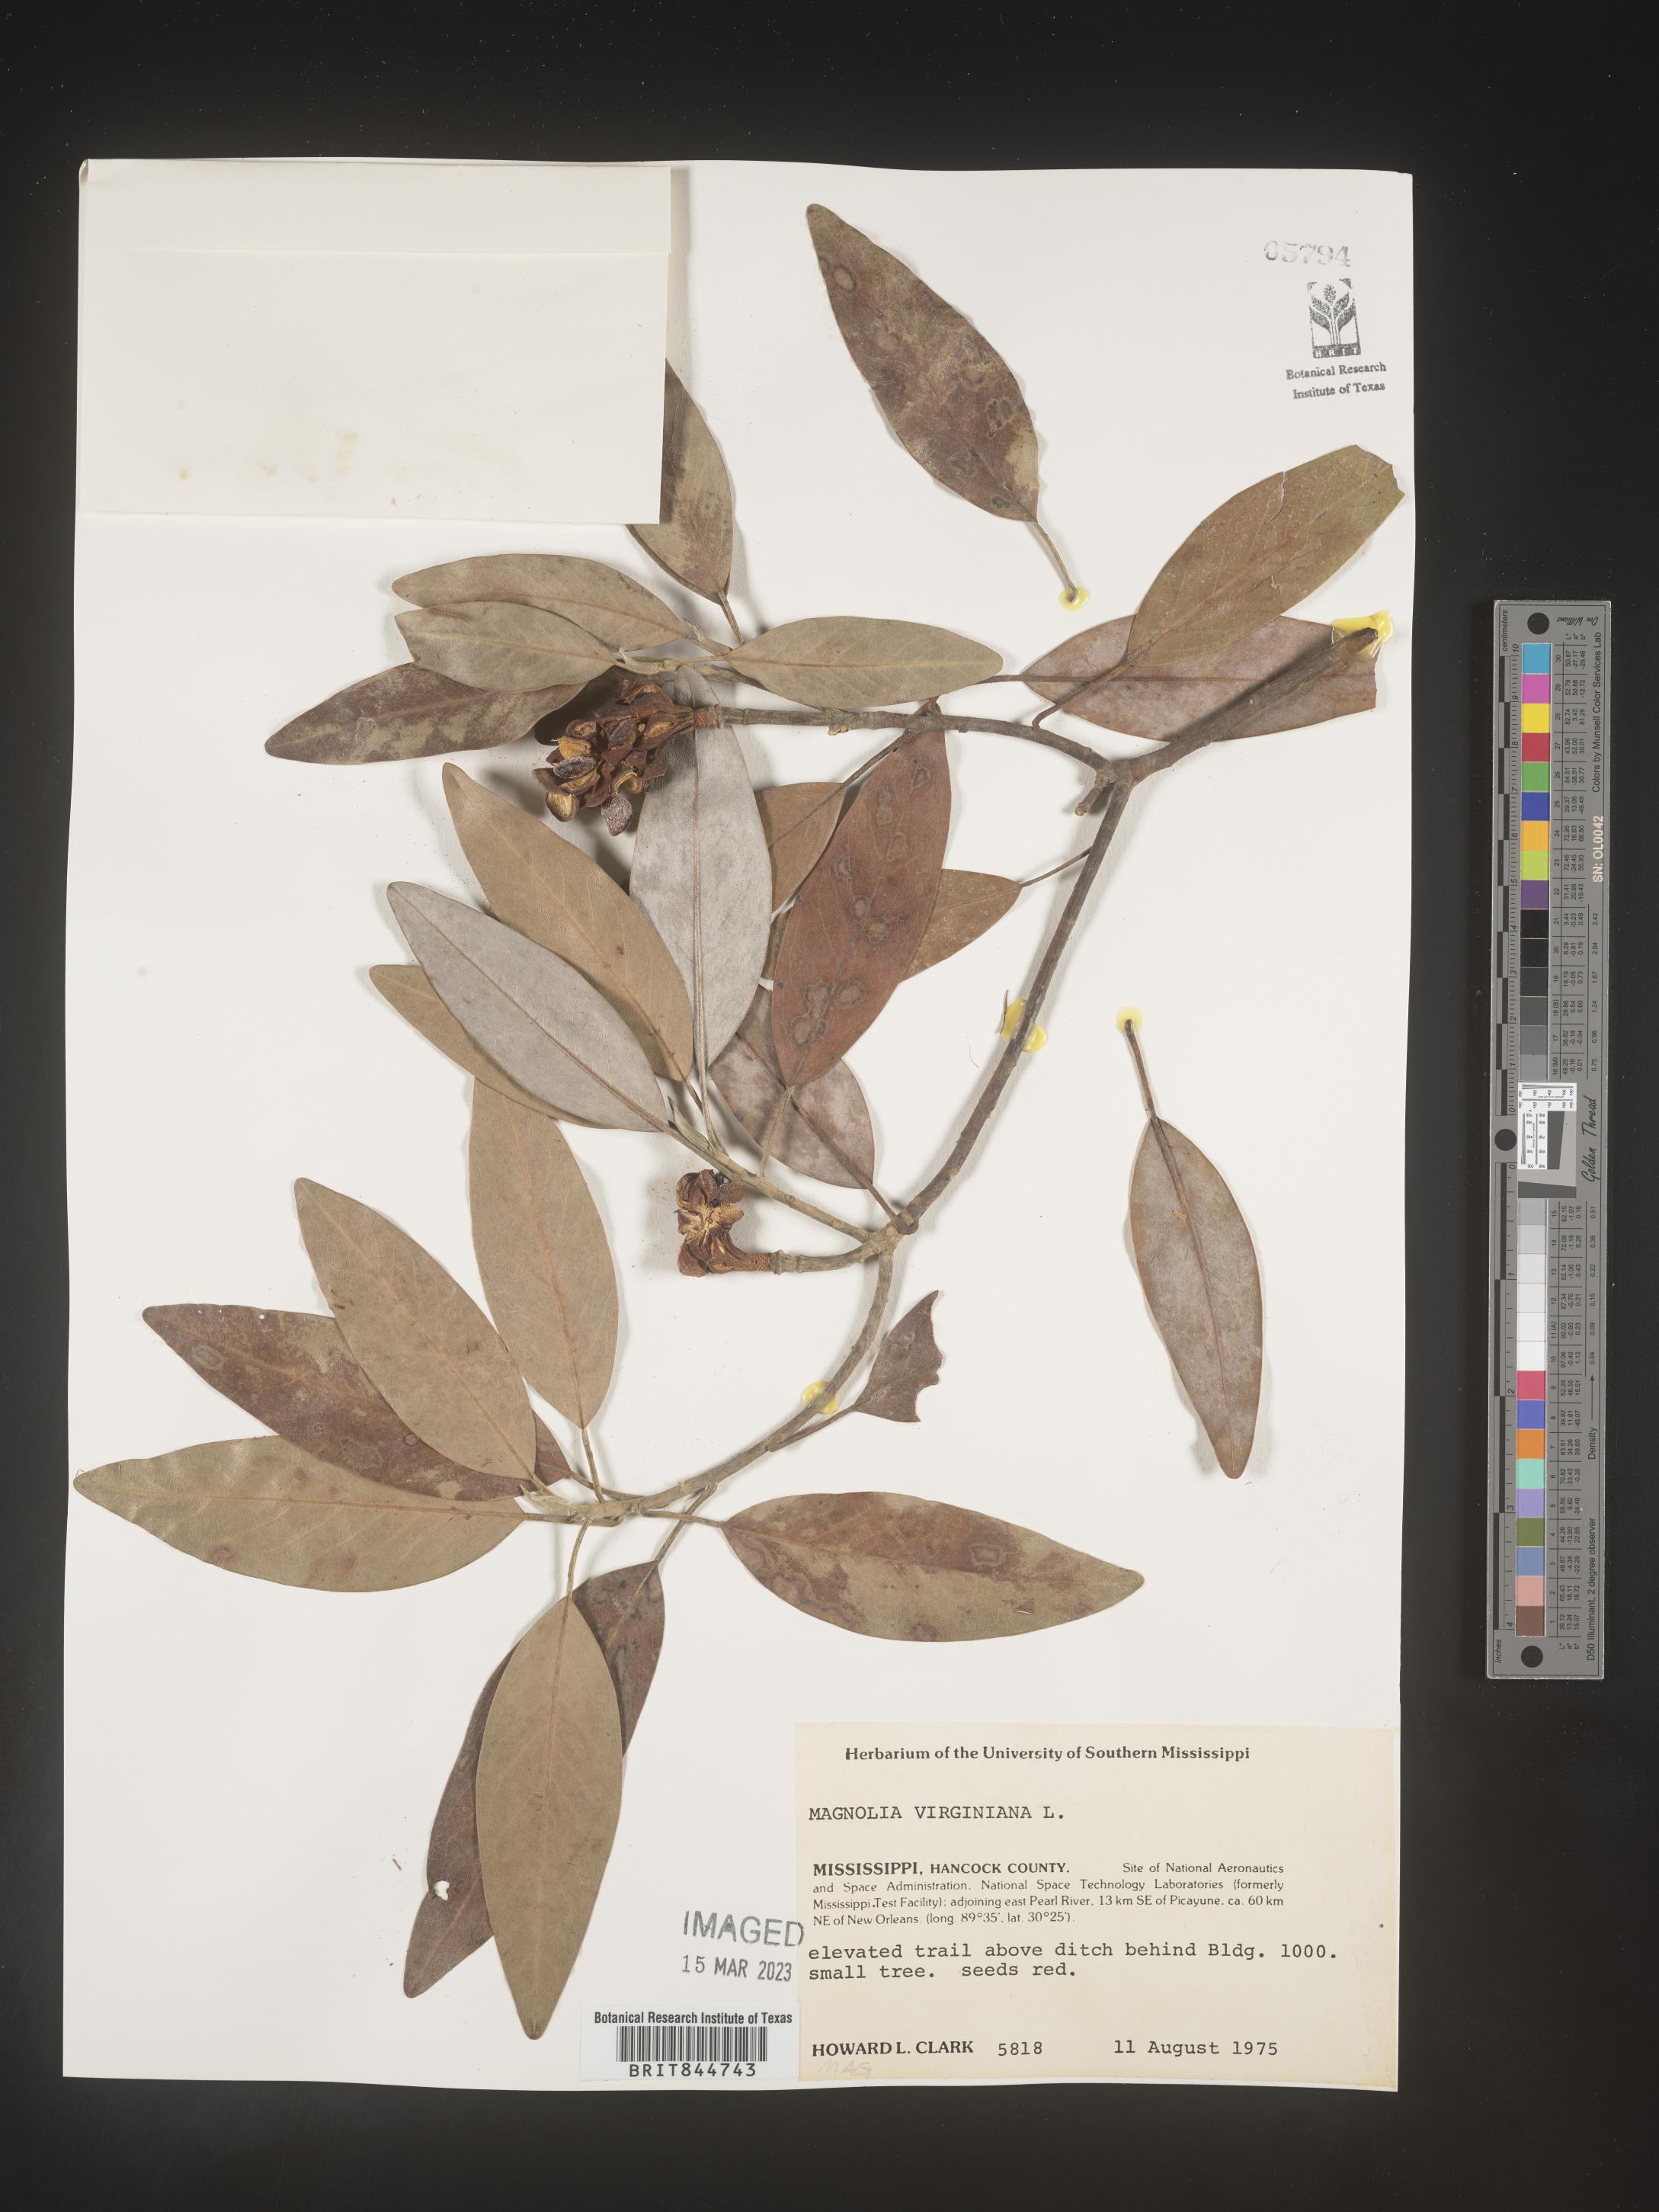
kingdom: Plantae
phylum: Tracheophyta
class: Magnoliopsida
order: Magnoliales
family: Magnoliaceae
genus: Magnolia
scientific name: Magnolia virginiana
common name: Swamp bay
